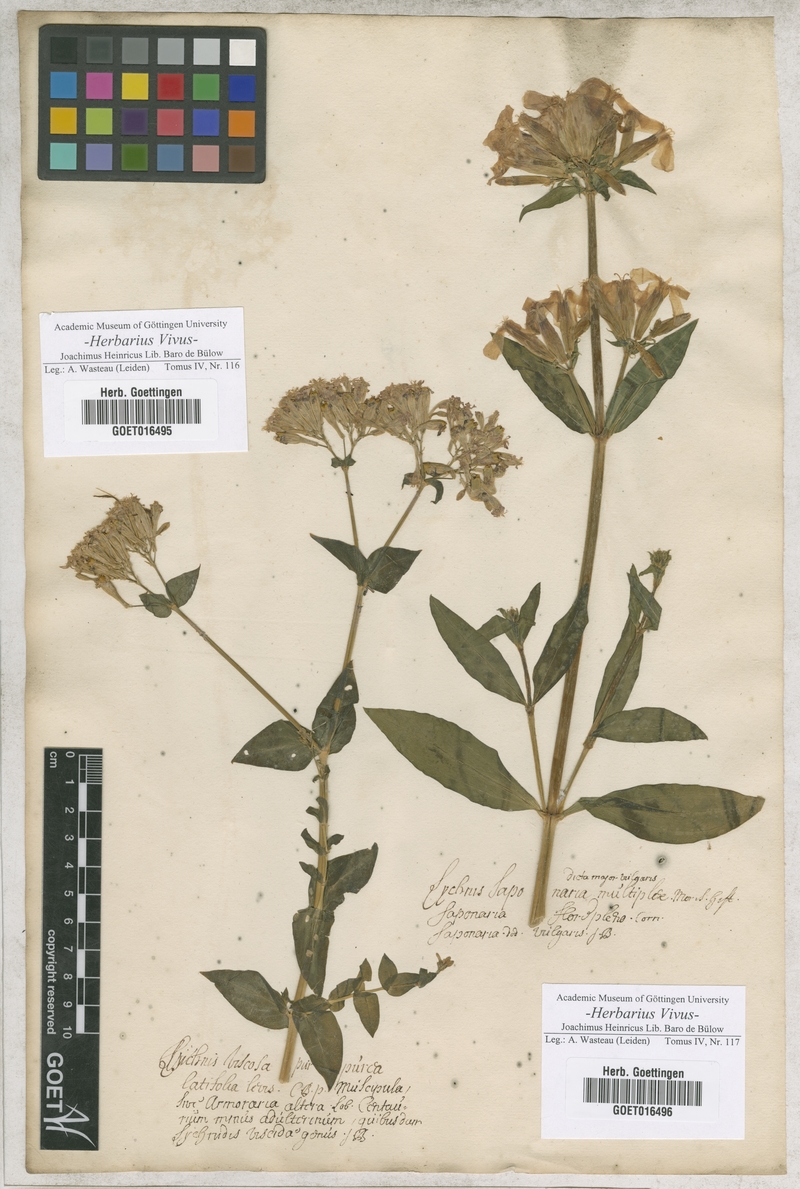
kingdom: Plantae
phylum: Tracheophyta
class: Magnoliopsida
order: Caryophyllales
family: Caryophyllaceae
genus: Atocion
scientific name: Atocion armeria
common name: Sweet william catchfly
